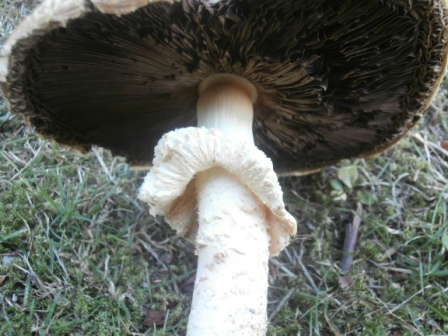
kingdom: Fungi
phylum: Basidiomycota
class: Agaricomycetes
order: Agaricales
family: Agaricaceae
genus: Agaricus
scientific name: Agaricus augustus
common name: prægtig champignon
